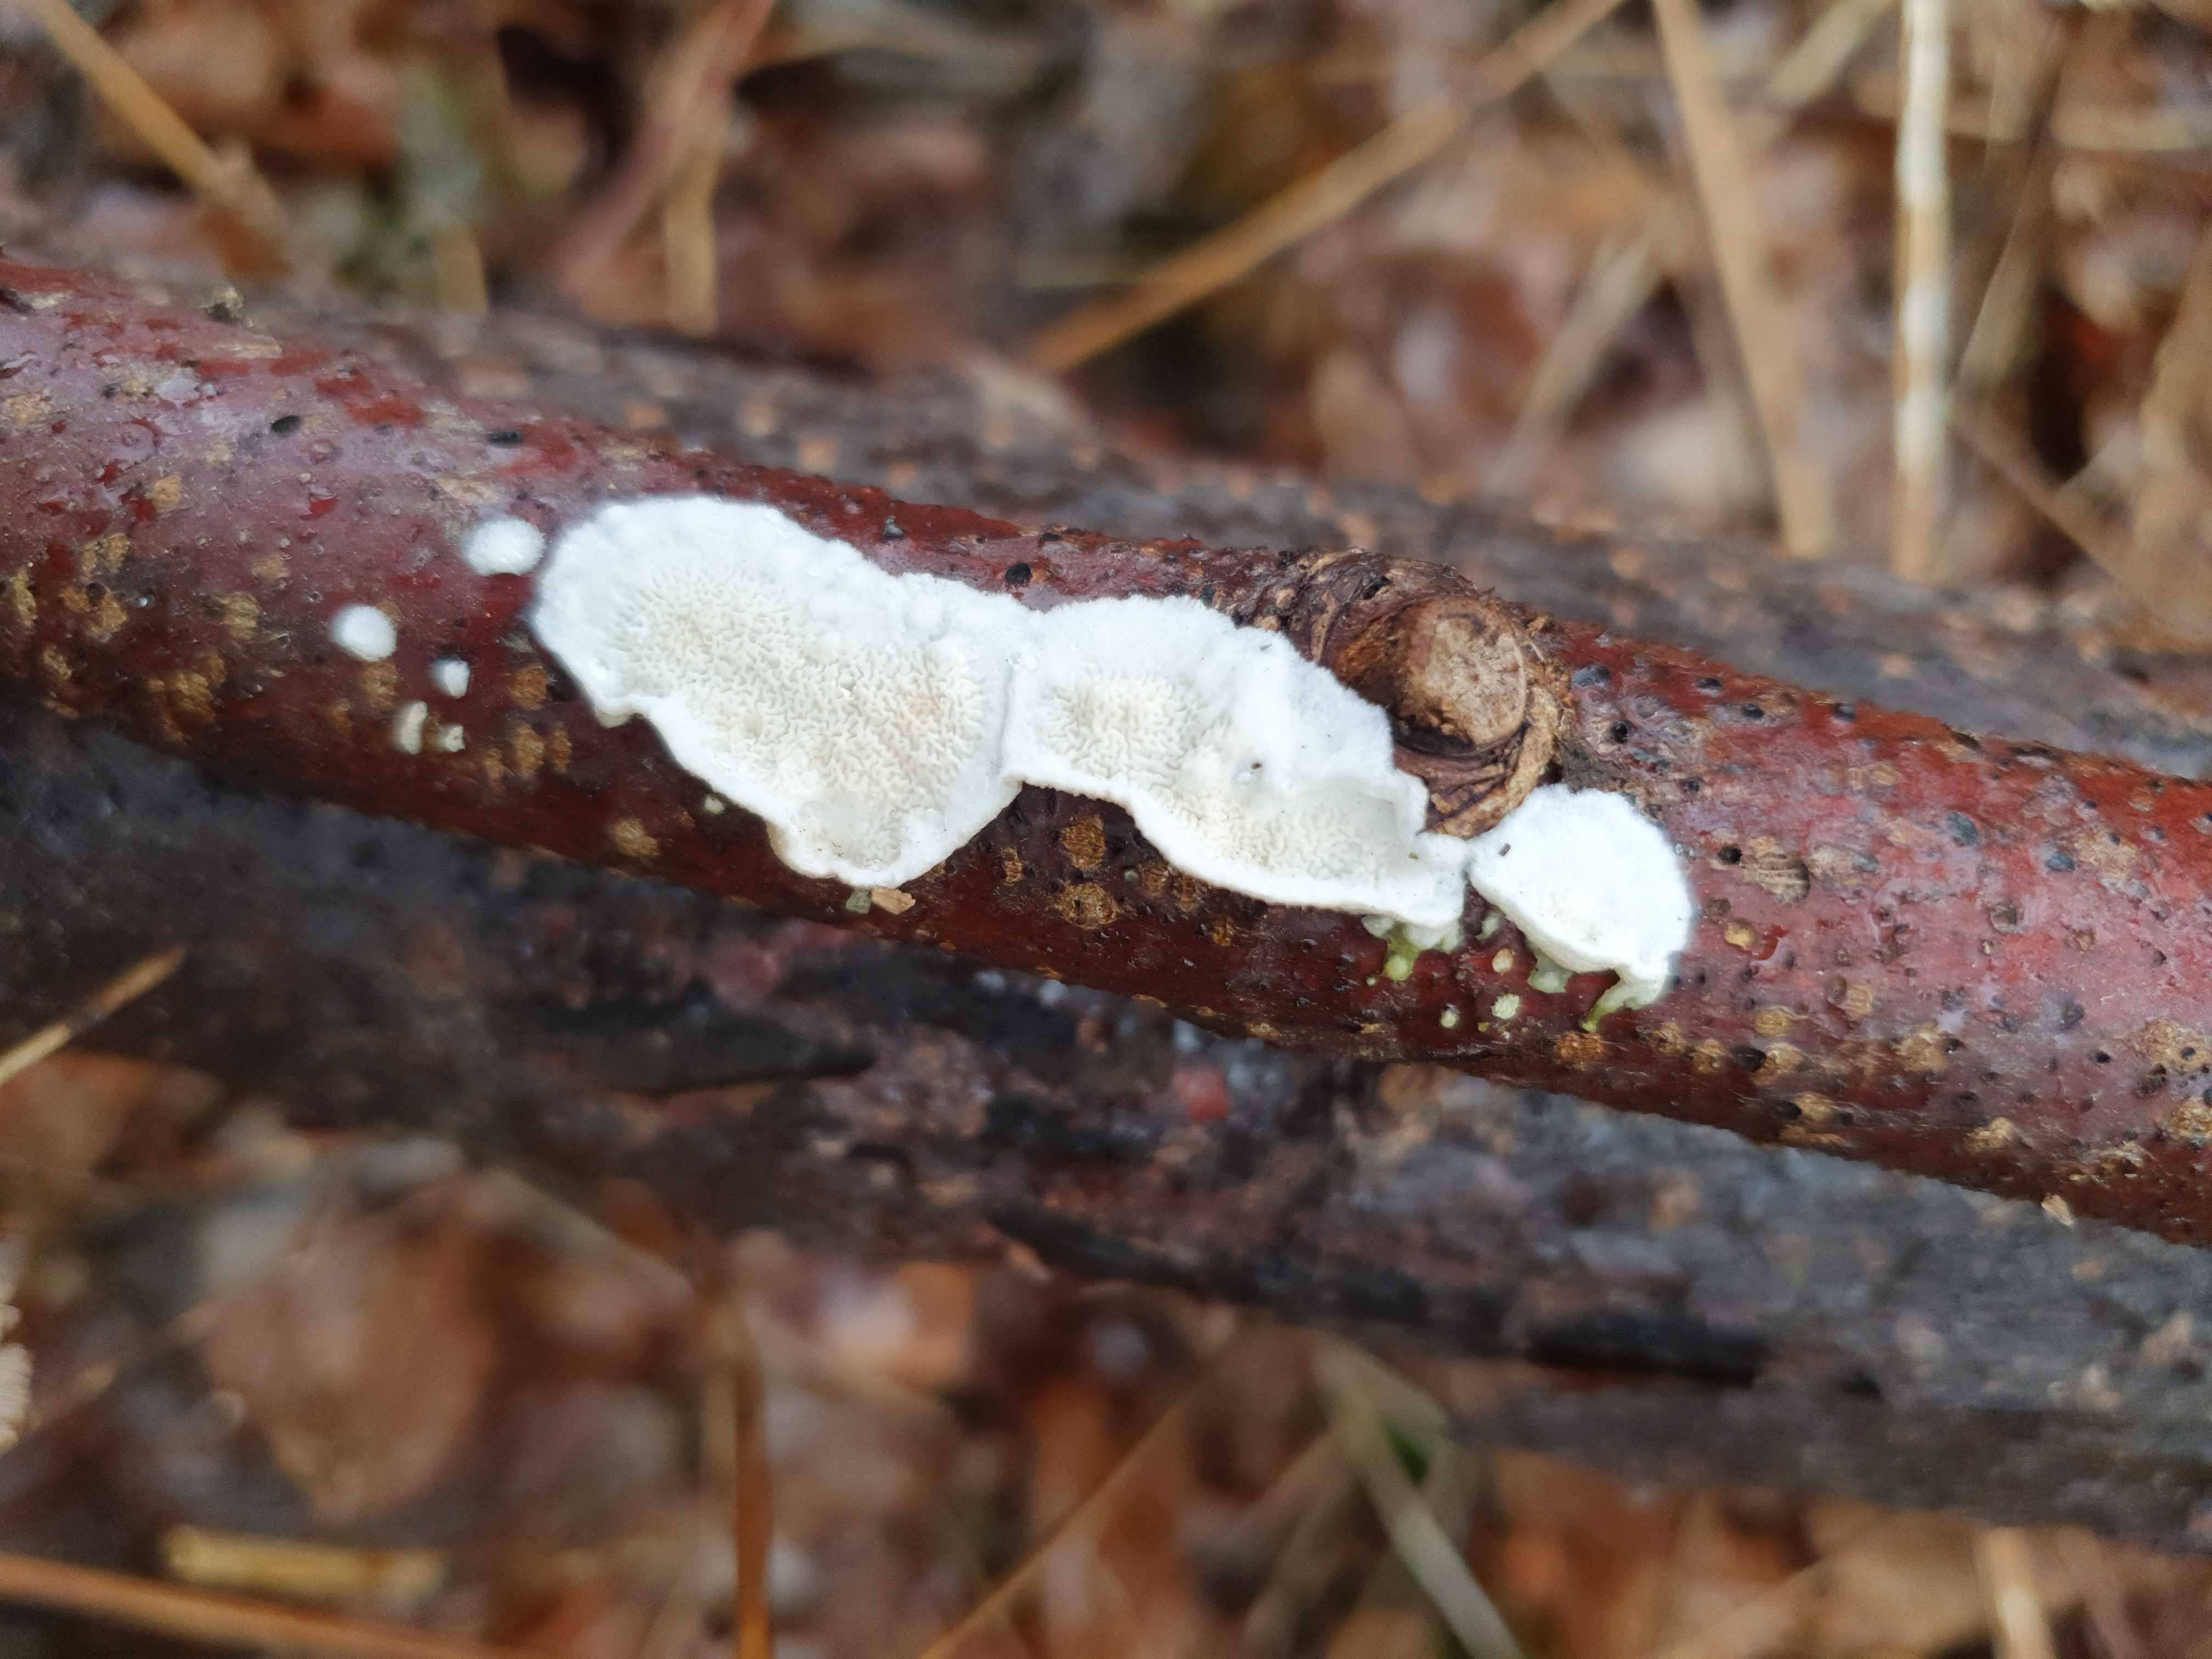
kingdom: Fungi
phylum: Basidiomycota
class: Agaricomycetes
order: Polyporales
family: Irpicaceae
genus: Byssomerulius
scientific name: Byssomerulius corium
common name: læder-åresvamp
